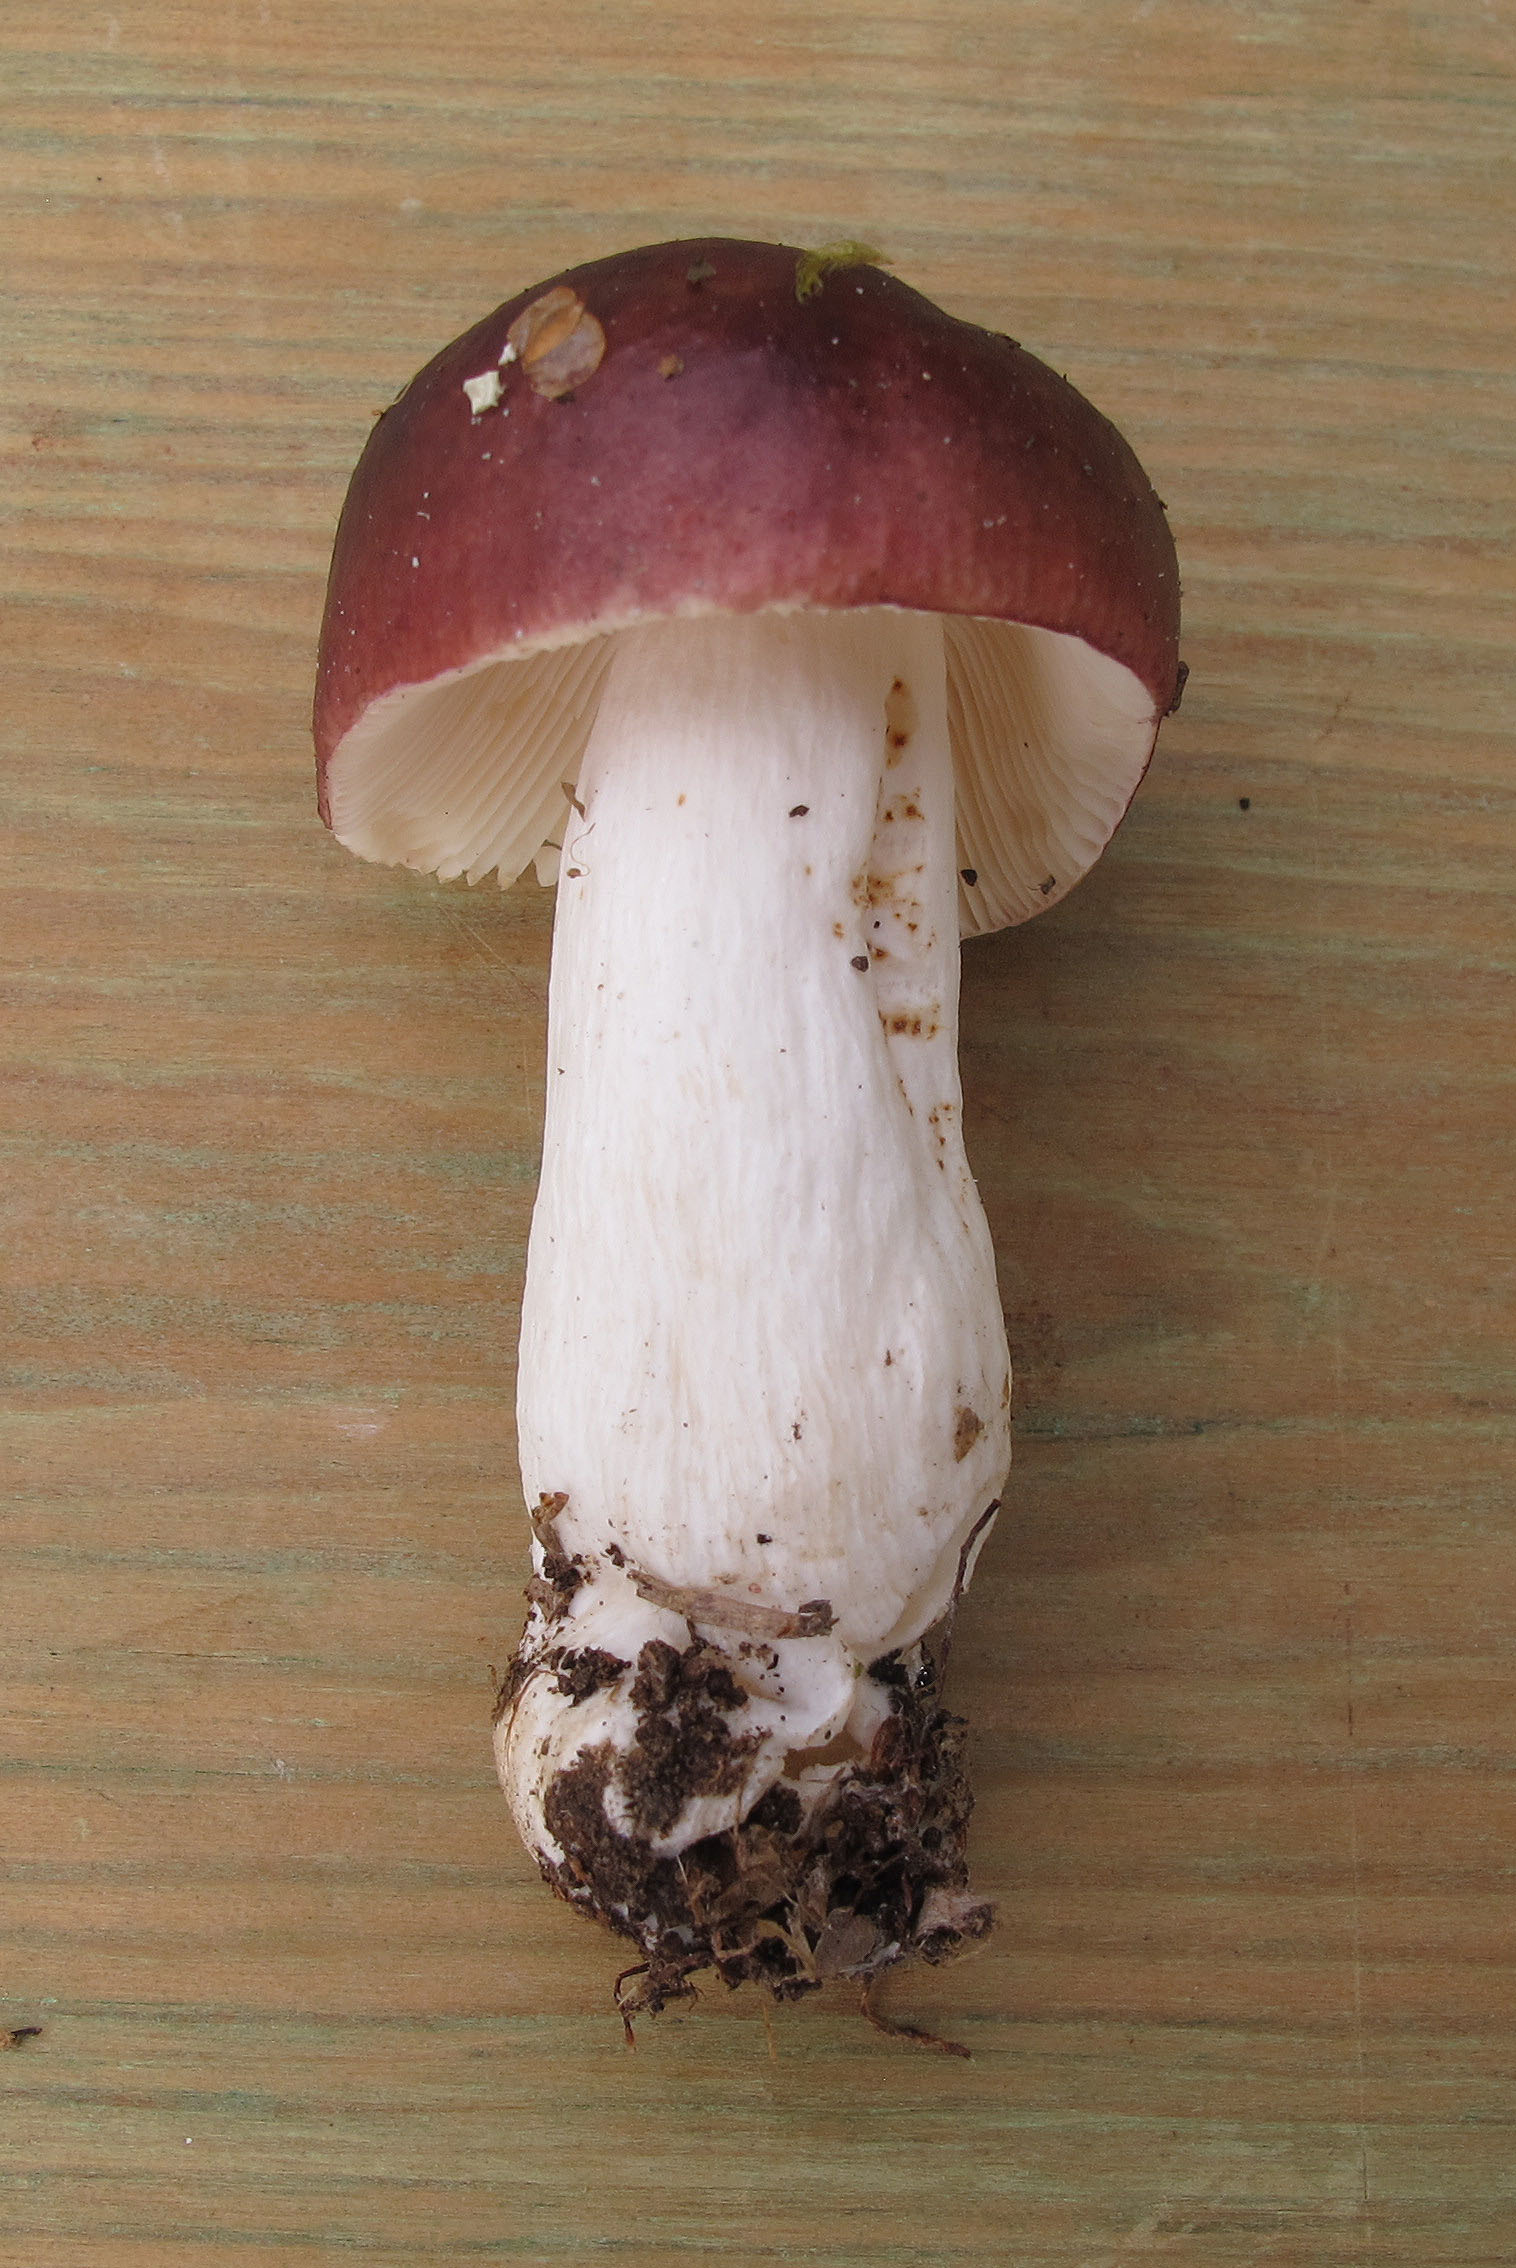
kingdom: Fungi
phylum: Basidiomycota
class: Agaricomycetes
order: Russulales
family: Russulaceae
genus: Russula
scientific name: Russula
